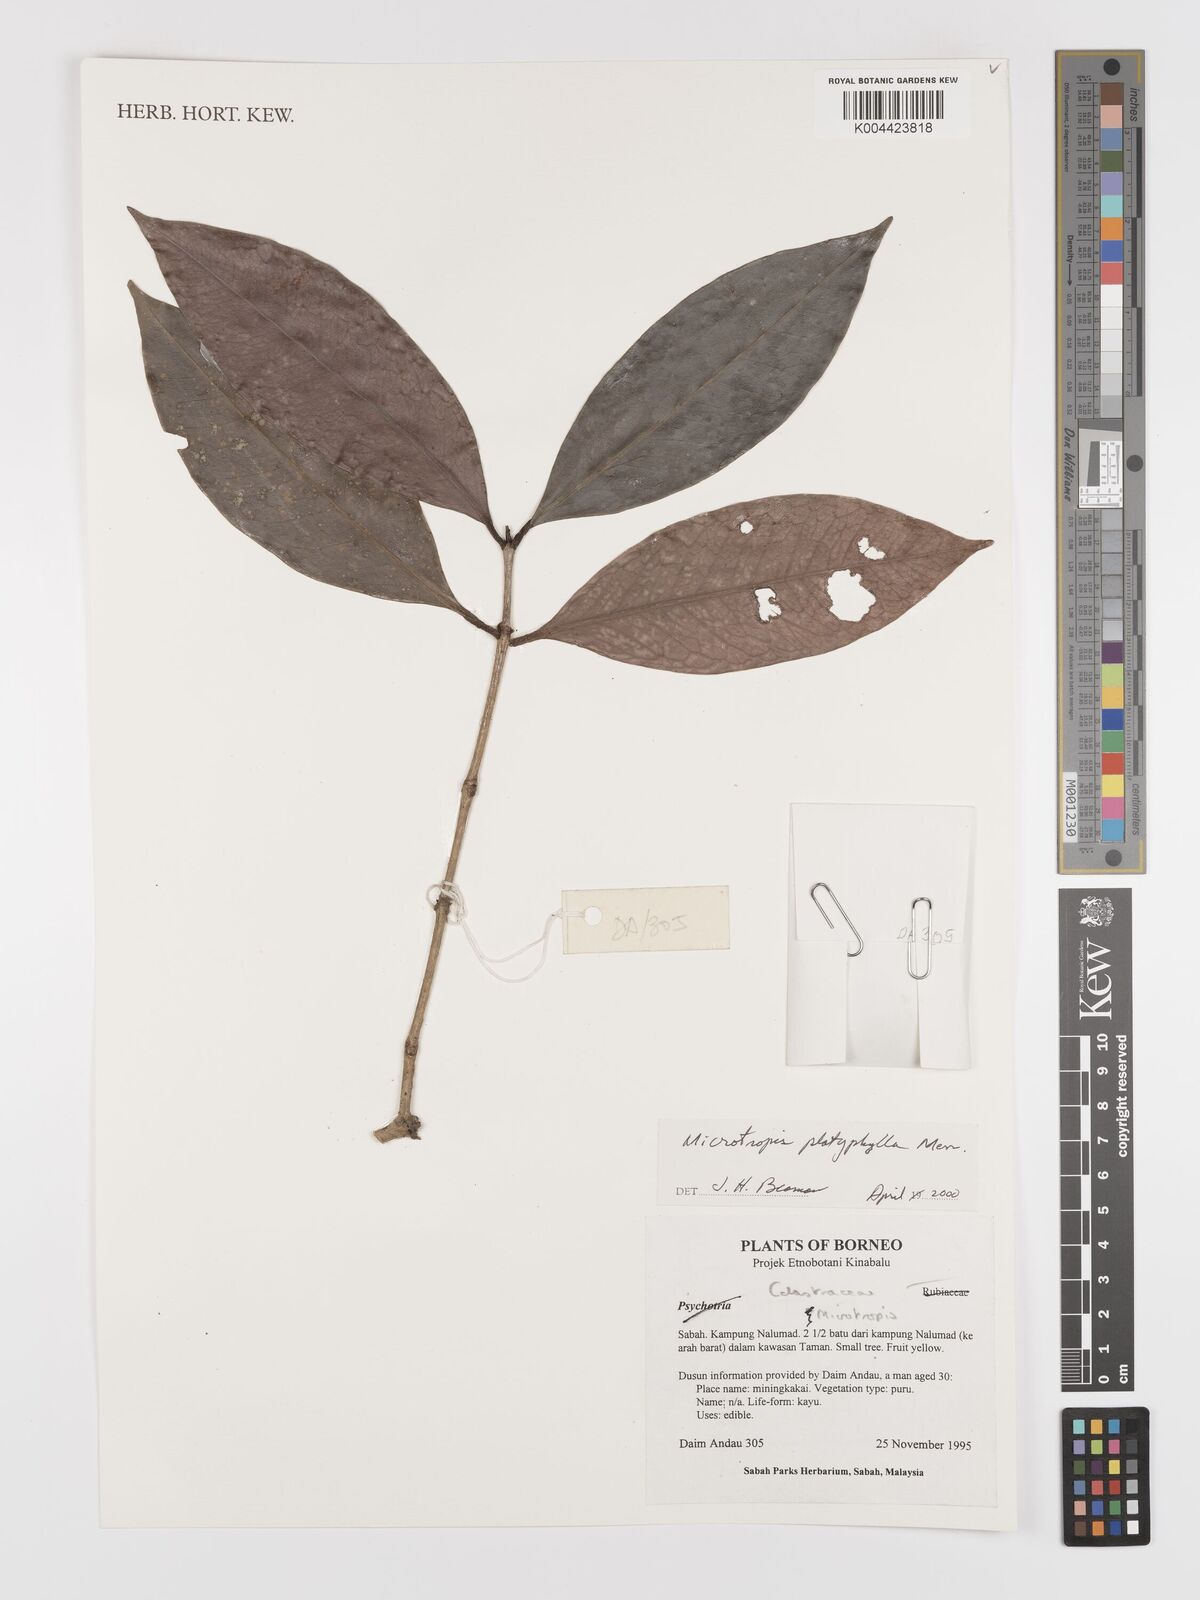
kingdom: Plantae
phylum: Tracheophyta
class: Magnoliopsida
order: Celastrales
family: Celastraceae
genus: Microtropis
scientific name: Microtropis platyphylla
